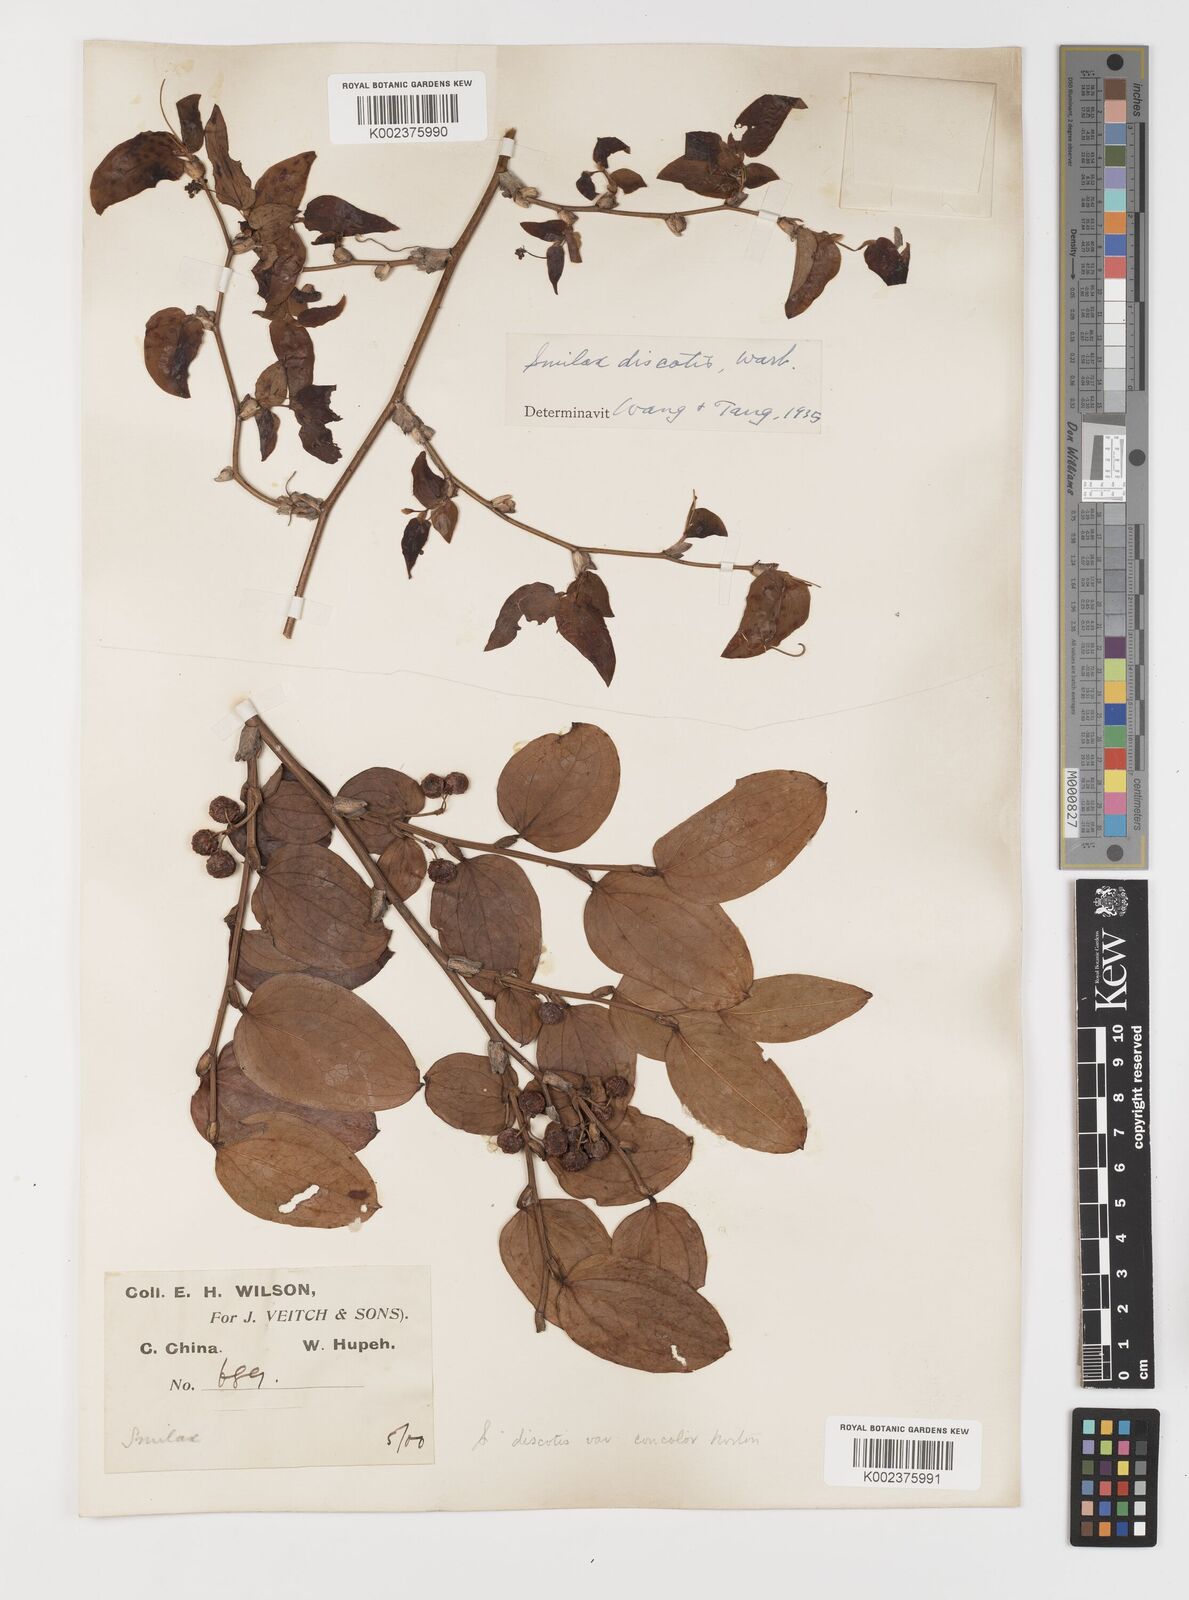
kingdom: Plantae
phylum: Tracheophyta
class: Liliopsida
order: Liliales
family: Smilacaceae
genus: Smilax
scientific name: Smilax discotis
